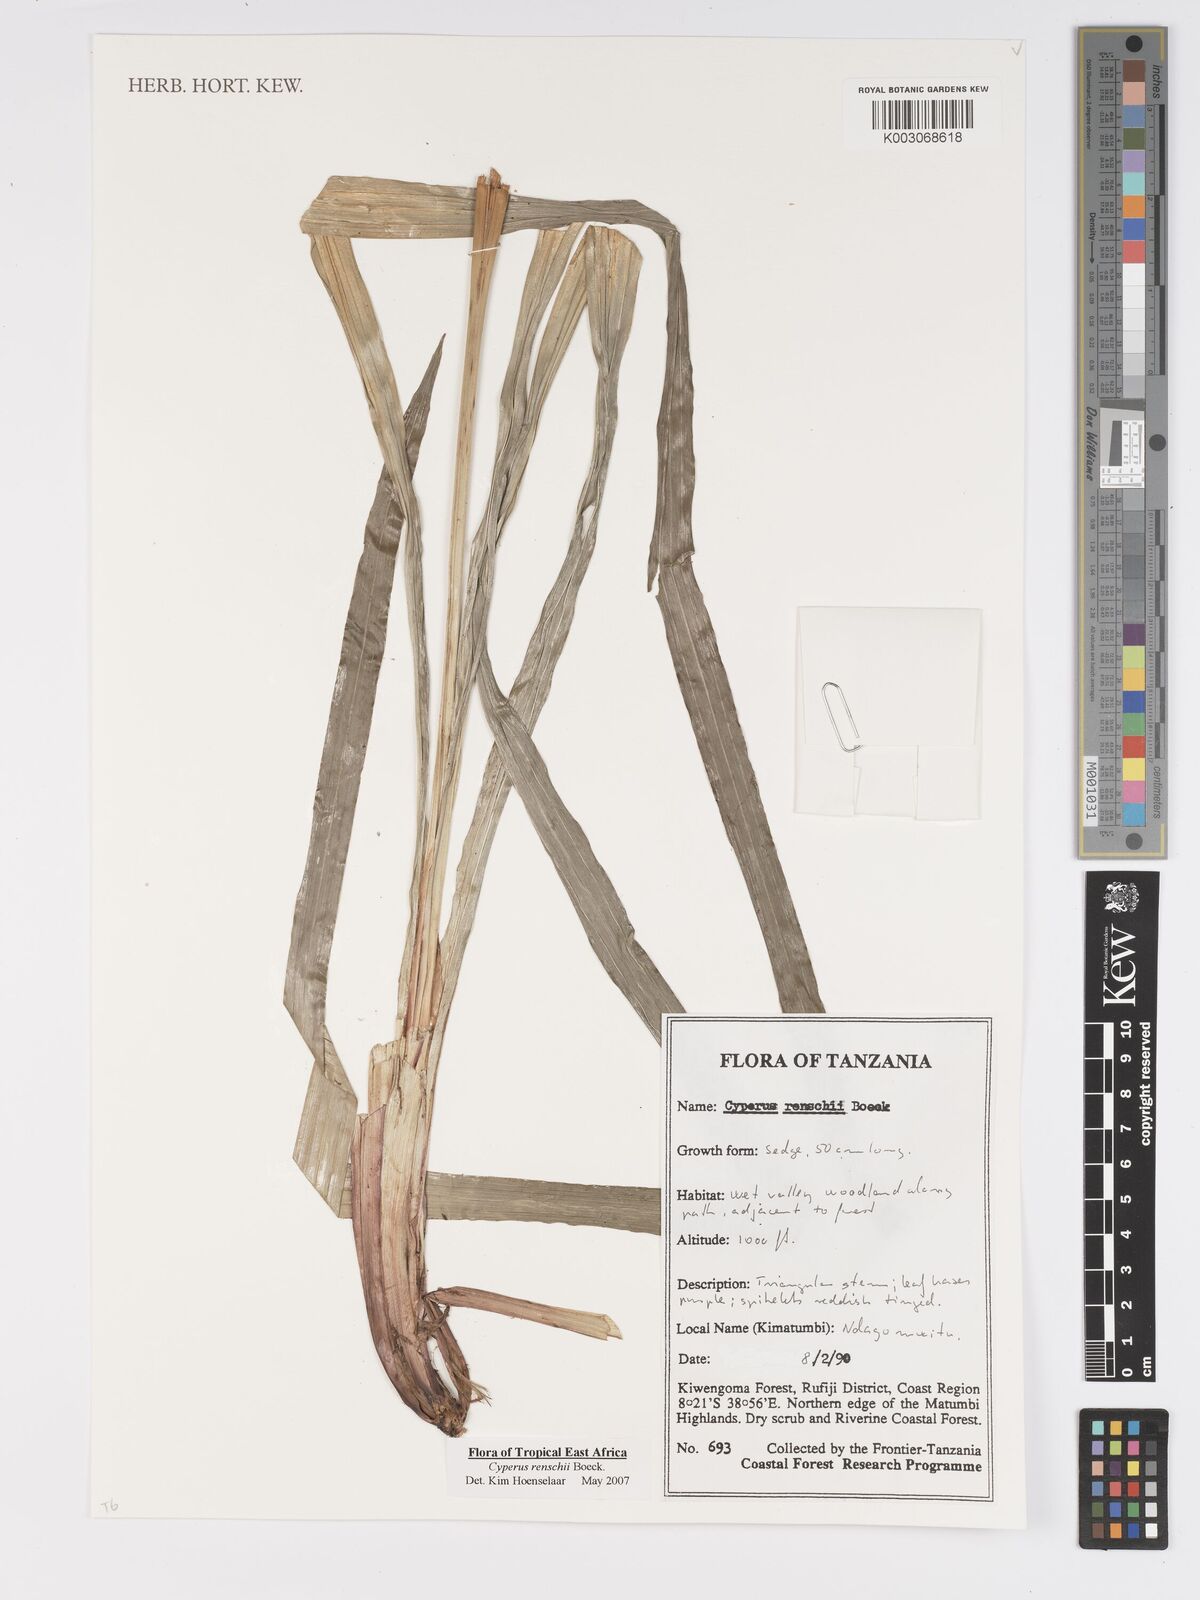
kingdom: Plantae
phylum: Tracheophyta
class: Liliopsida
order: Poales
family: Cyperaceae
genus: Cyperus
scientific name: Cyperus renschii
